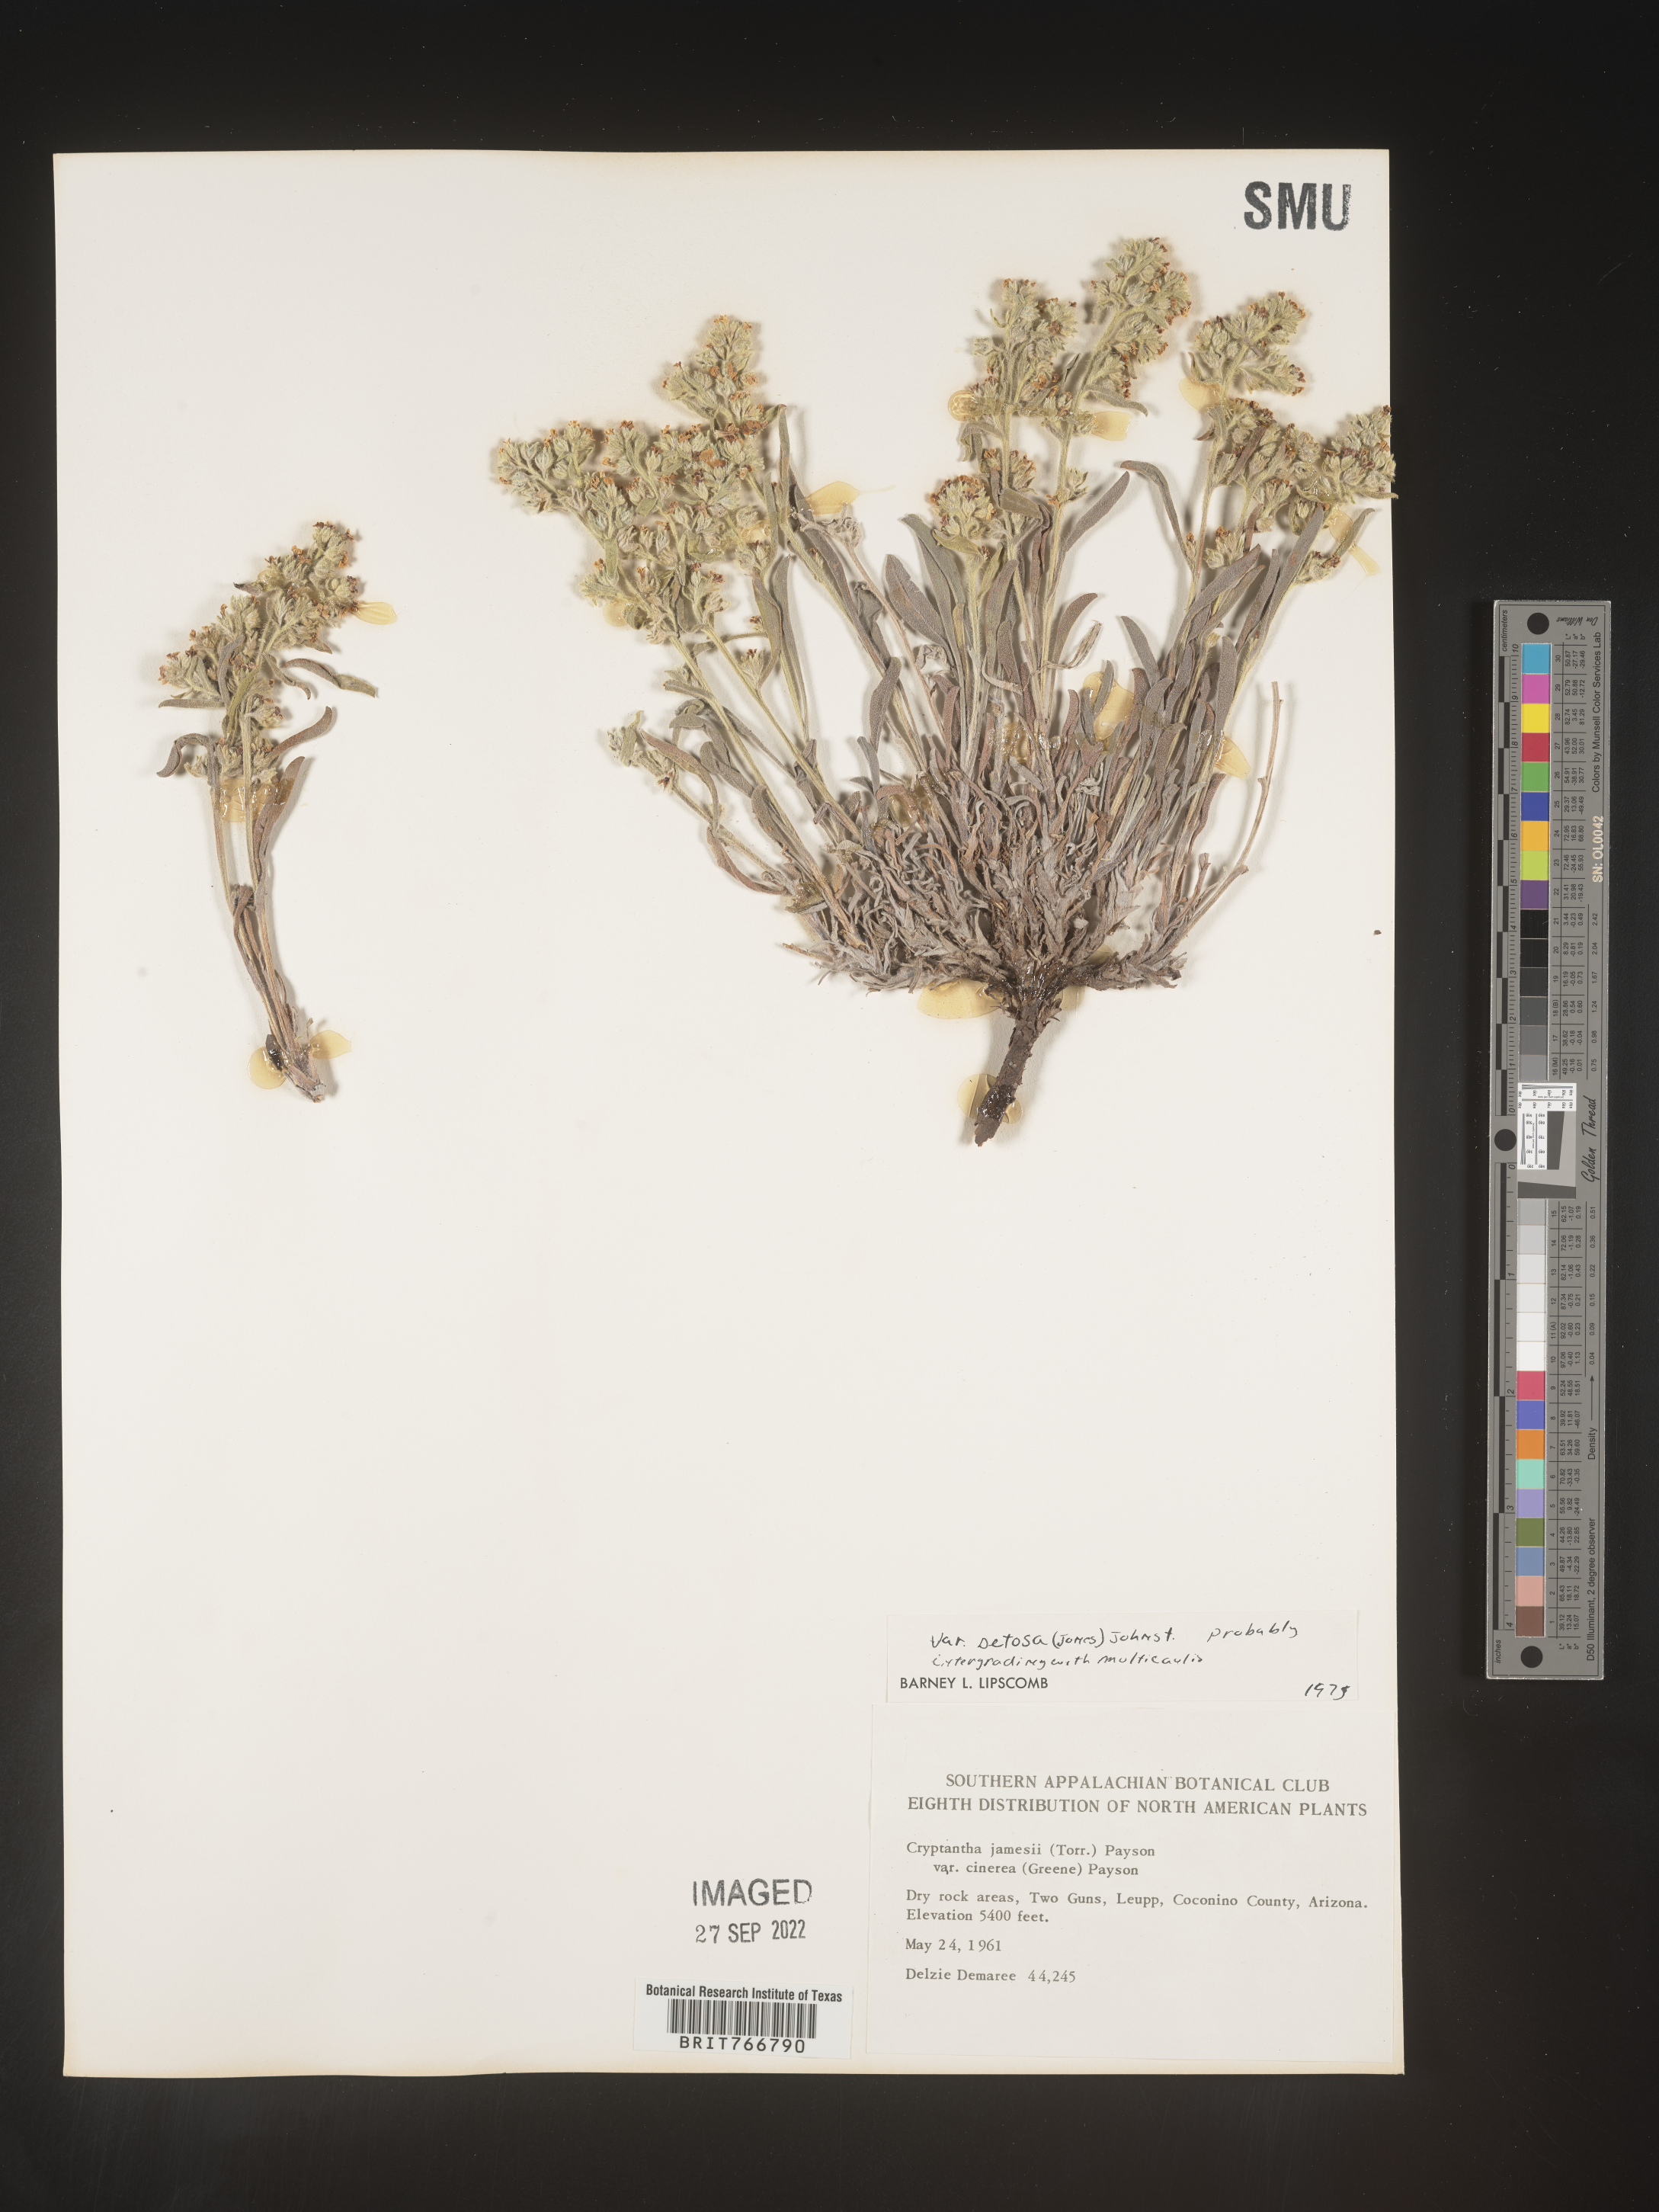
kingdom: Plantae
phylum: Tracheophyta
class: Magnoliopsida
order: Boraginales
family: Boraginaceae
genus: Oreocarya
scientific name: Oreocarya suffruticosa
